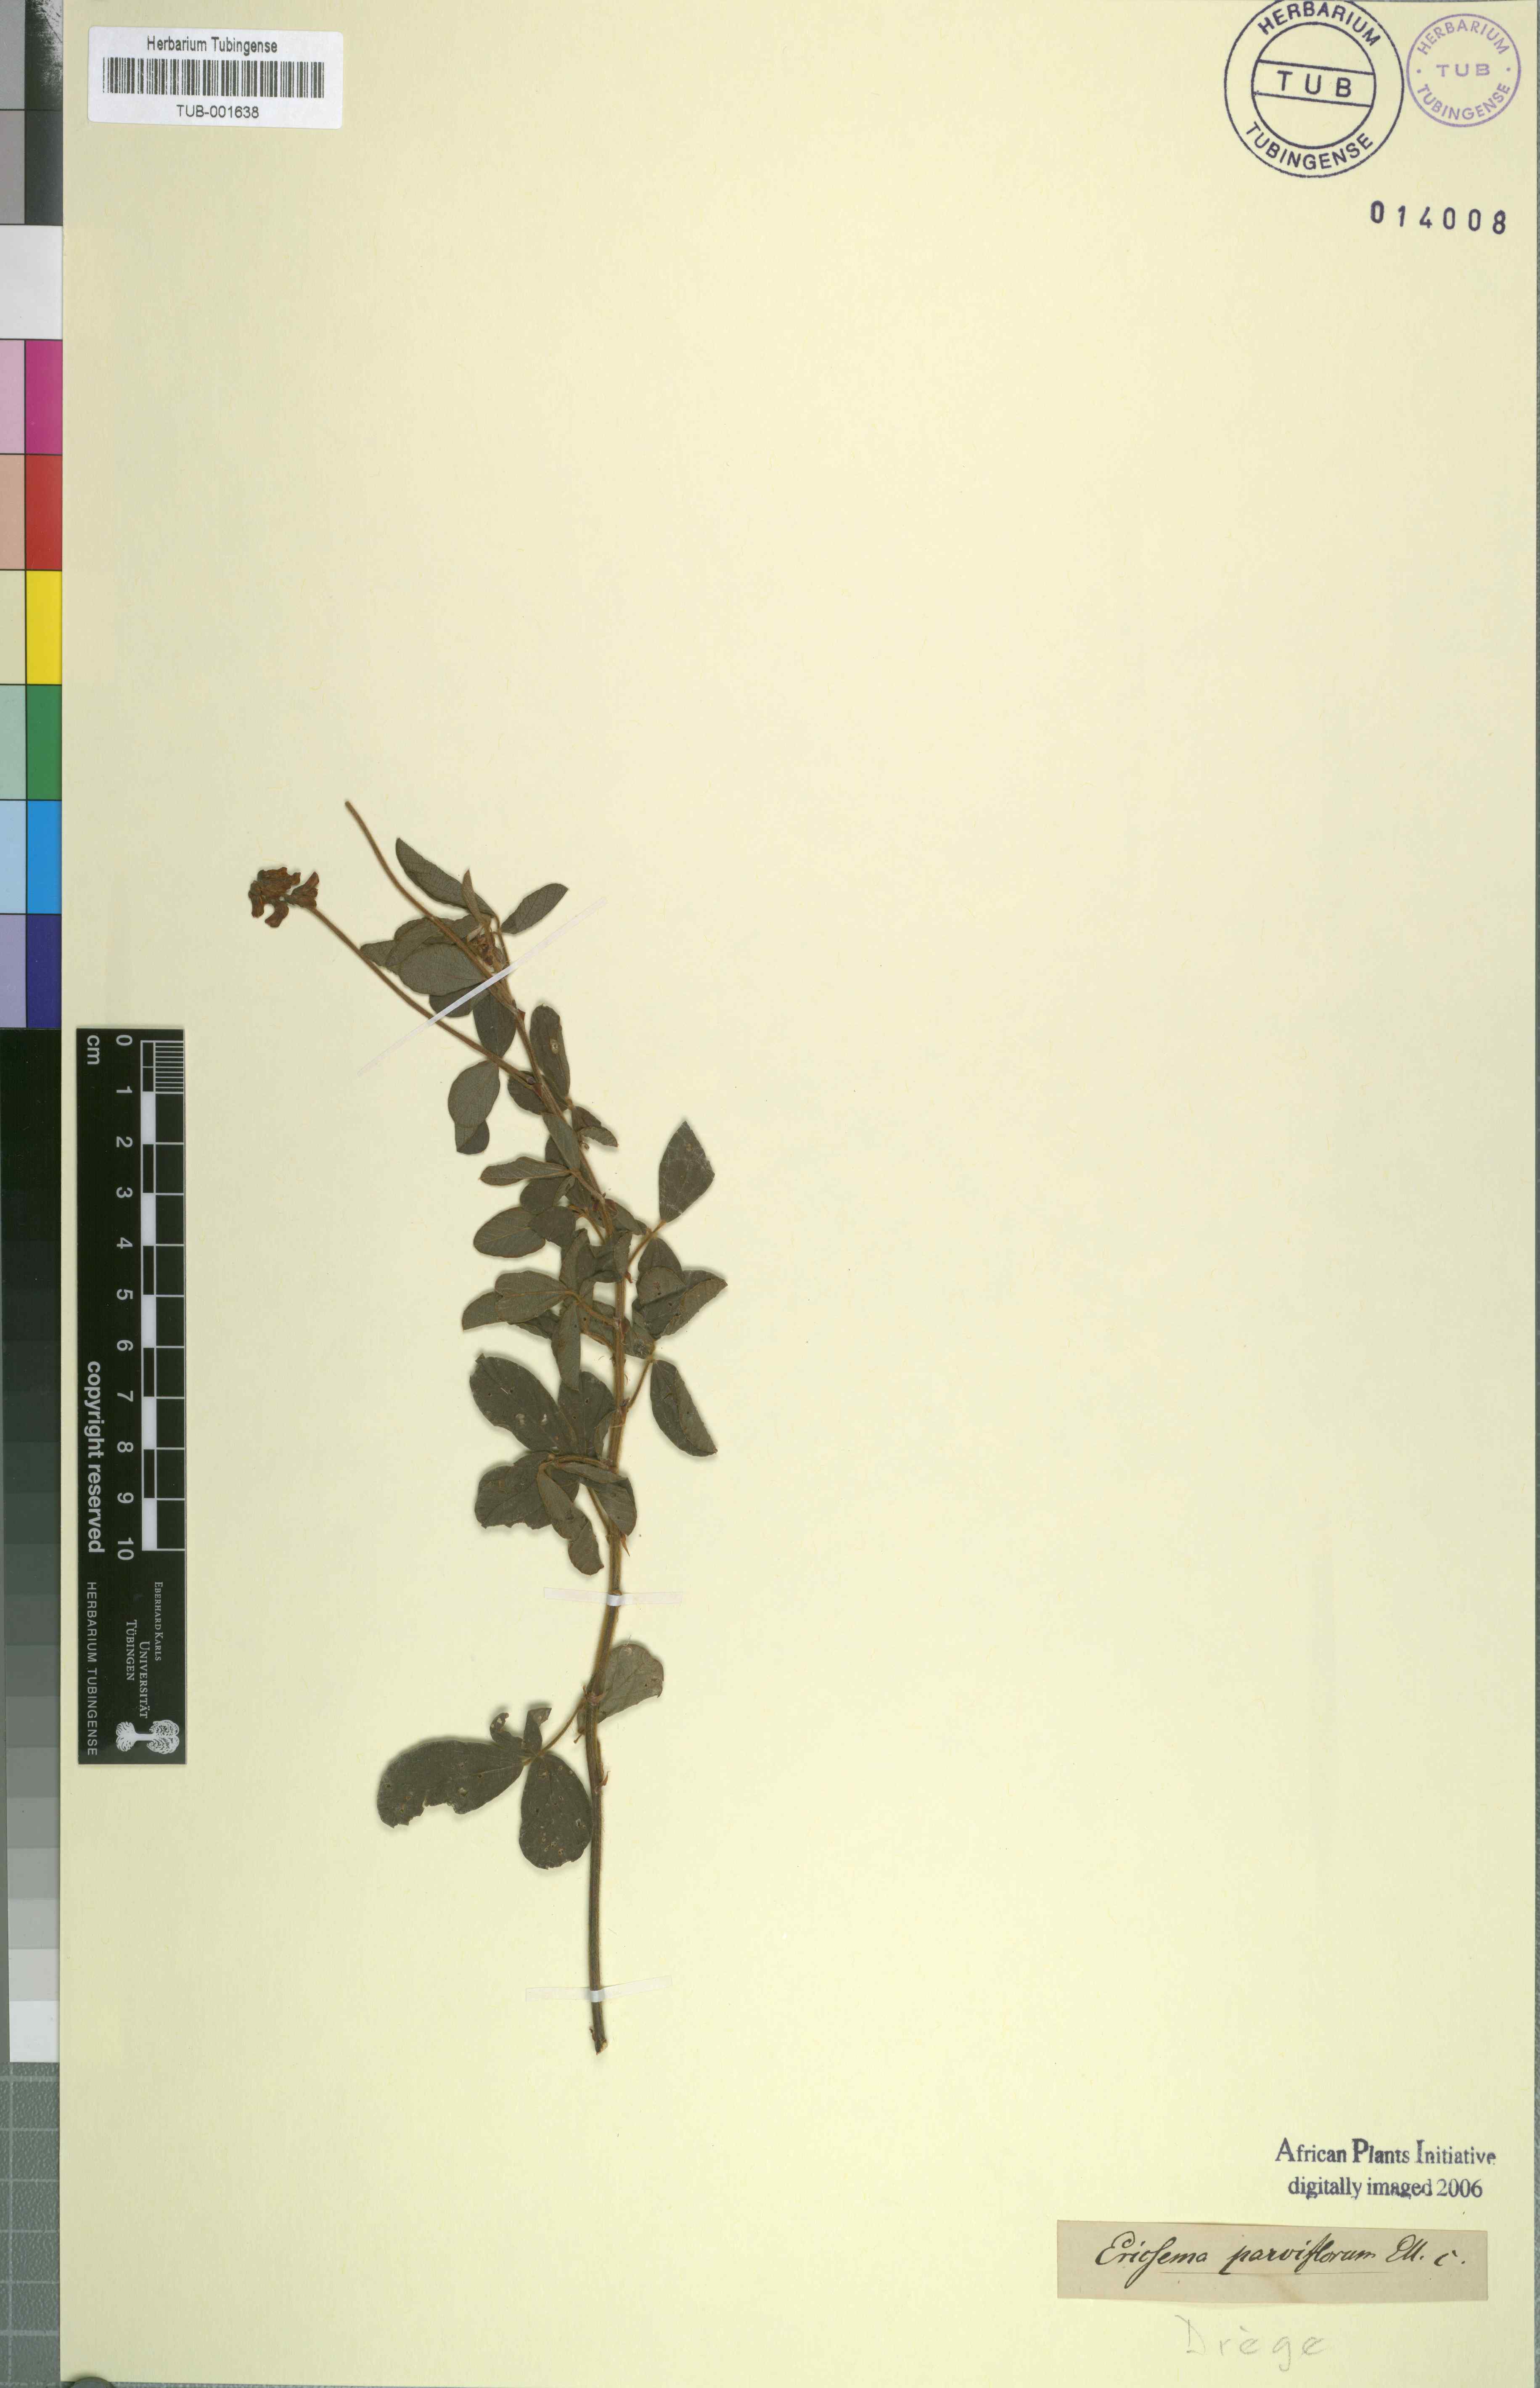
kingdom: Plantae
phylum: Tracheophyta
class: Magnoliopsida
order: Fabales
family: Fabaceae
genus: Eriosema
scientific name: Eriosema parviflorum
